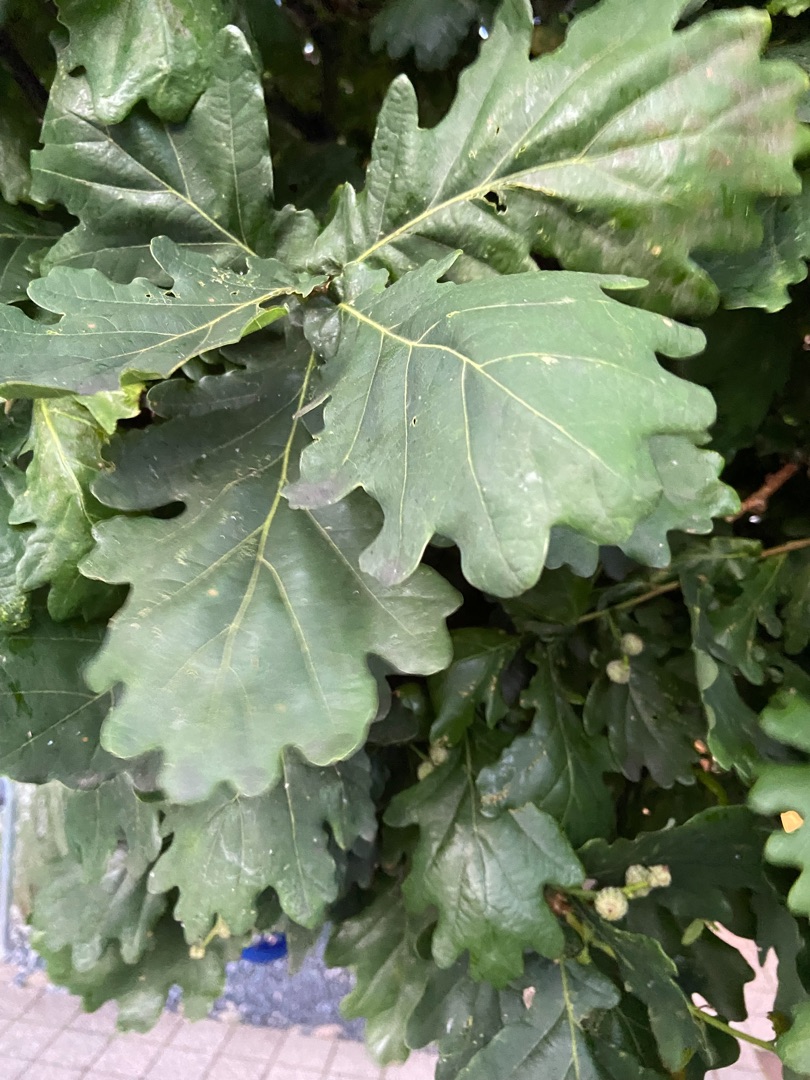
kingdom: Plantae
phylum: Tracheophyta
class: Magnoliopsida
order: Fagales
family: Fagaceae
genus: Quercus
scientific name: Quercus robur
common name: Stilk-eg/almindelig eg
